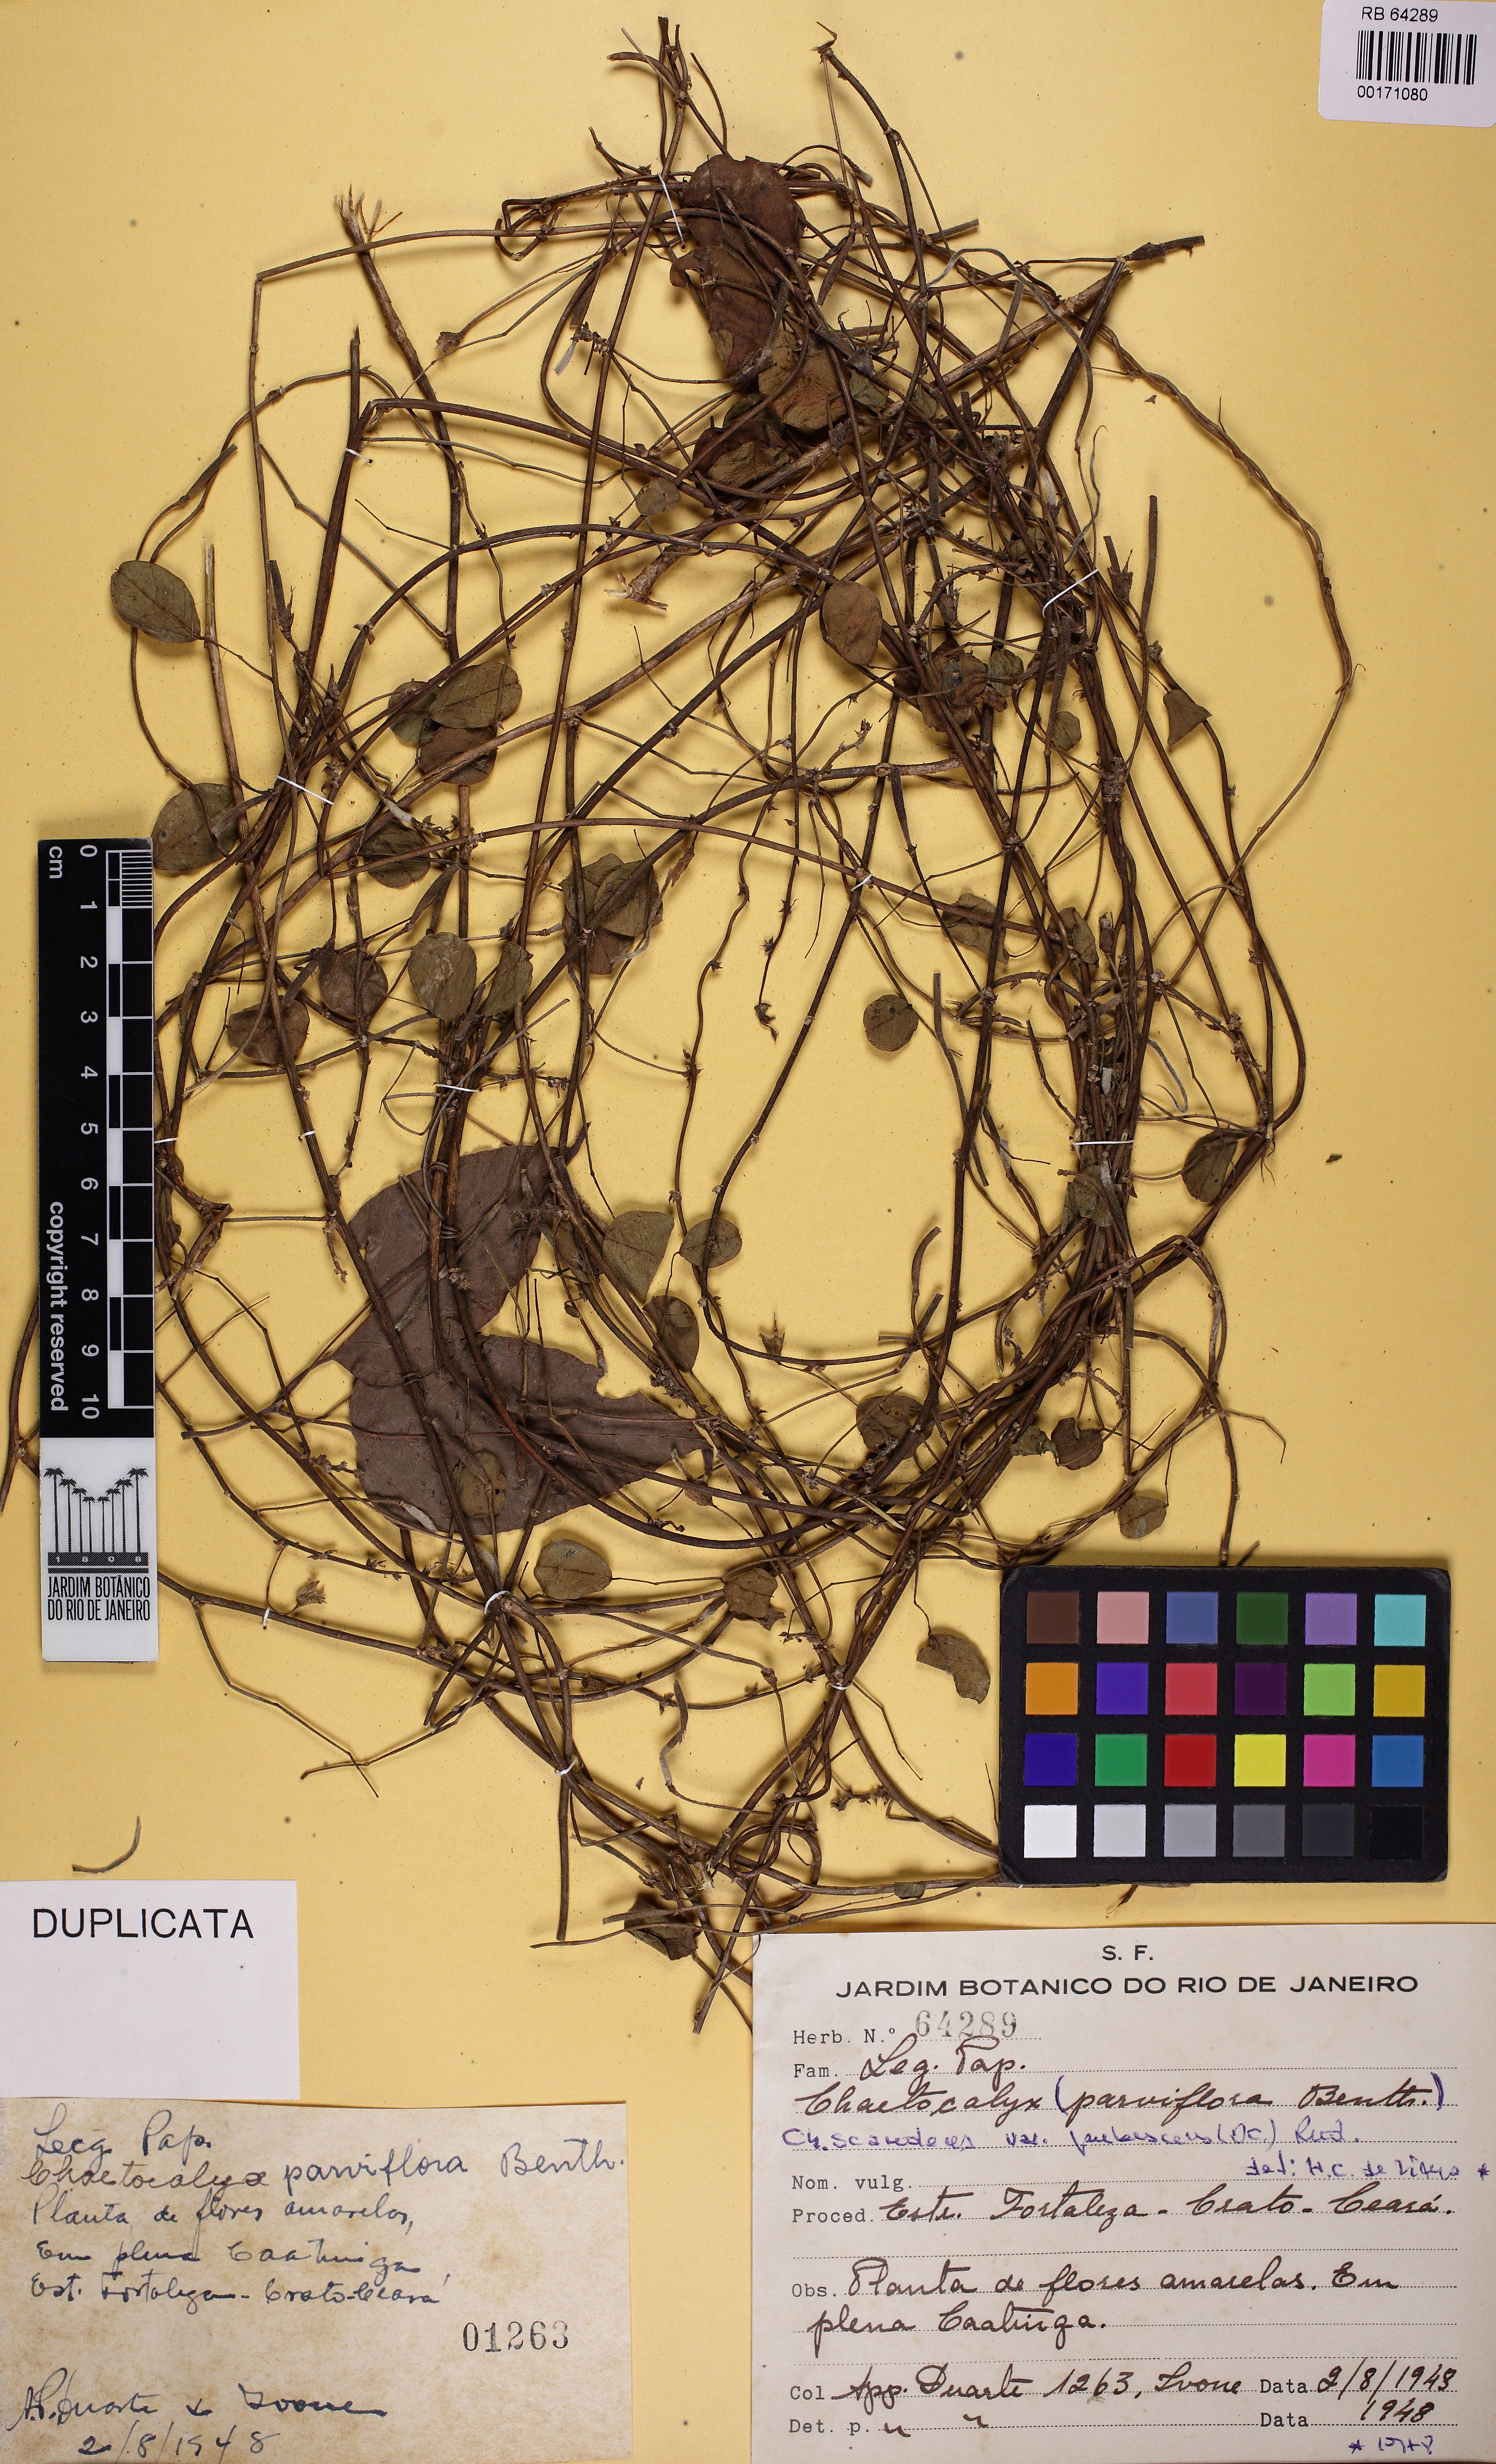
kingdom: Plantae
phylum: Tracheophyta
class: Magnoliopsida
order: Fabales
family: Fabaceae
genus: Nissolia
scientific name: Nissolia vincentina
